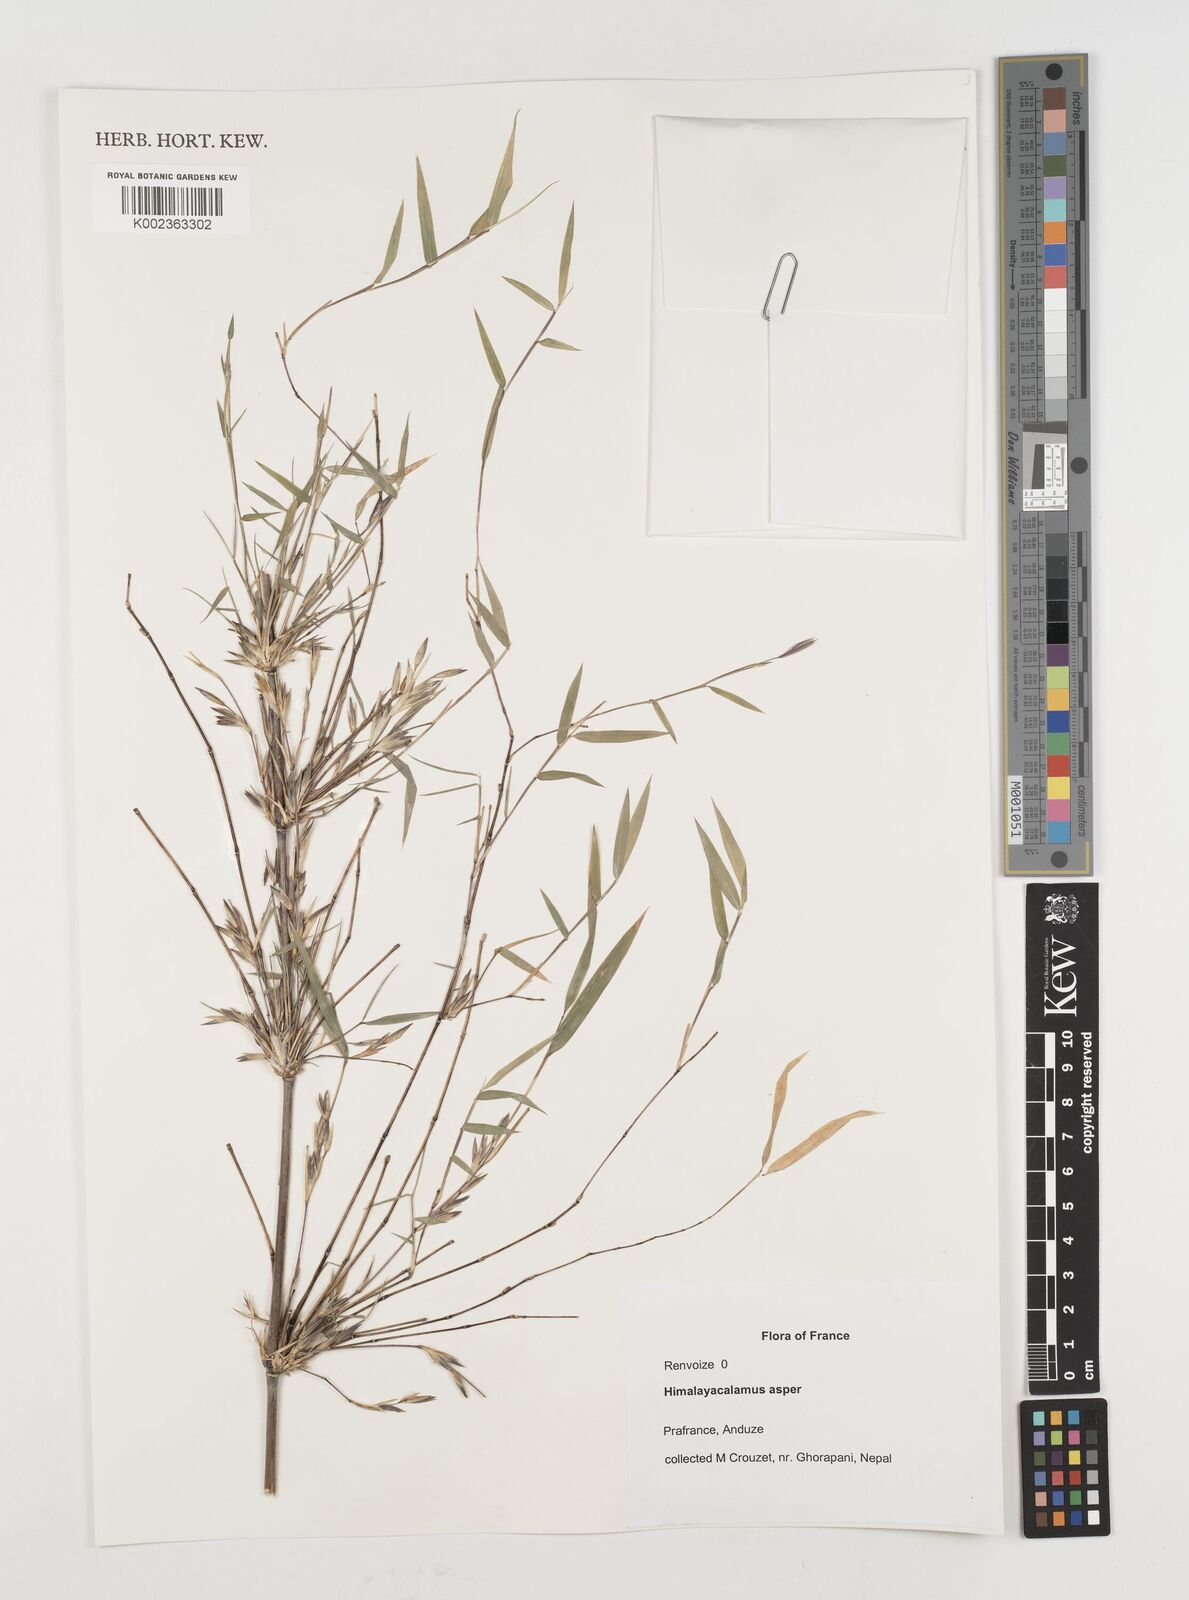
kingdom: Plantae
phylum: Tracheophyta
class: Liliopsida
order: Poales
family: Poaceae
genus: Himalayacalamus
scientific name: Himalayacalamus asper
